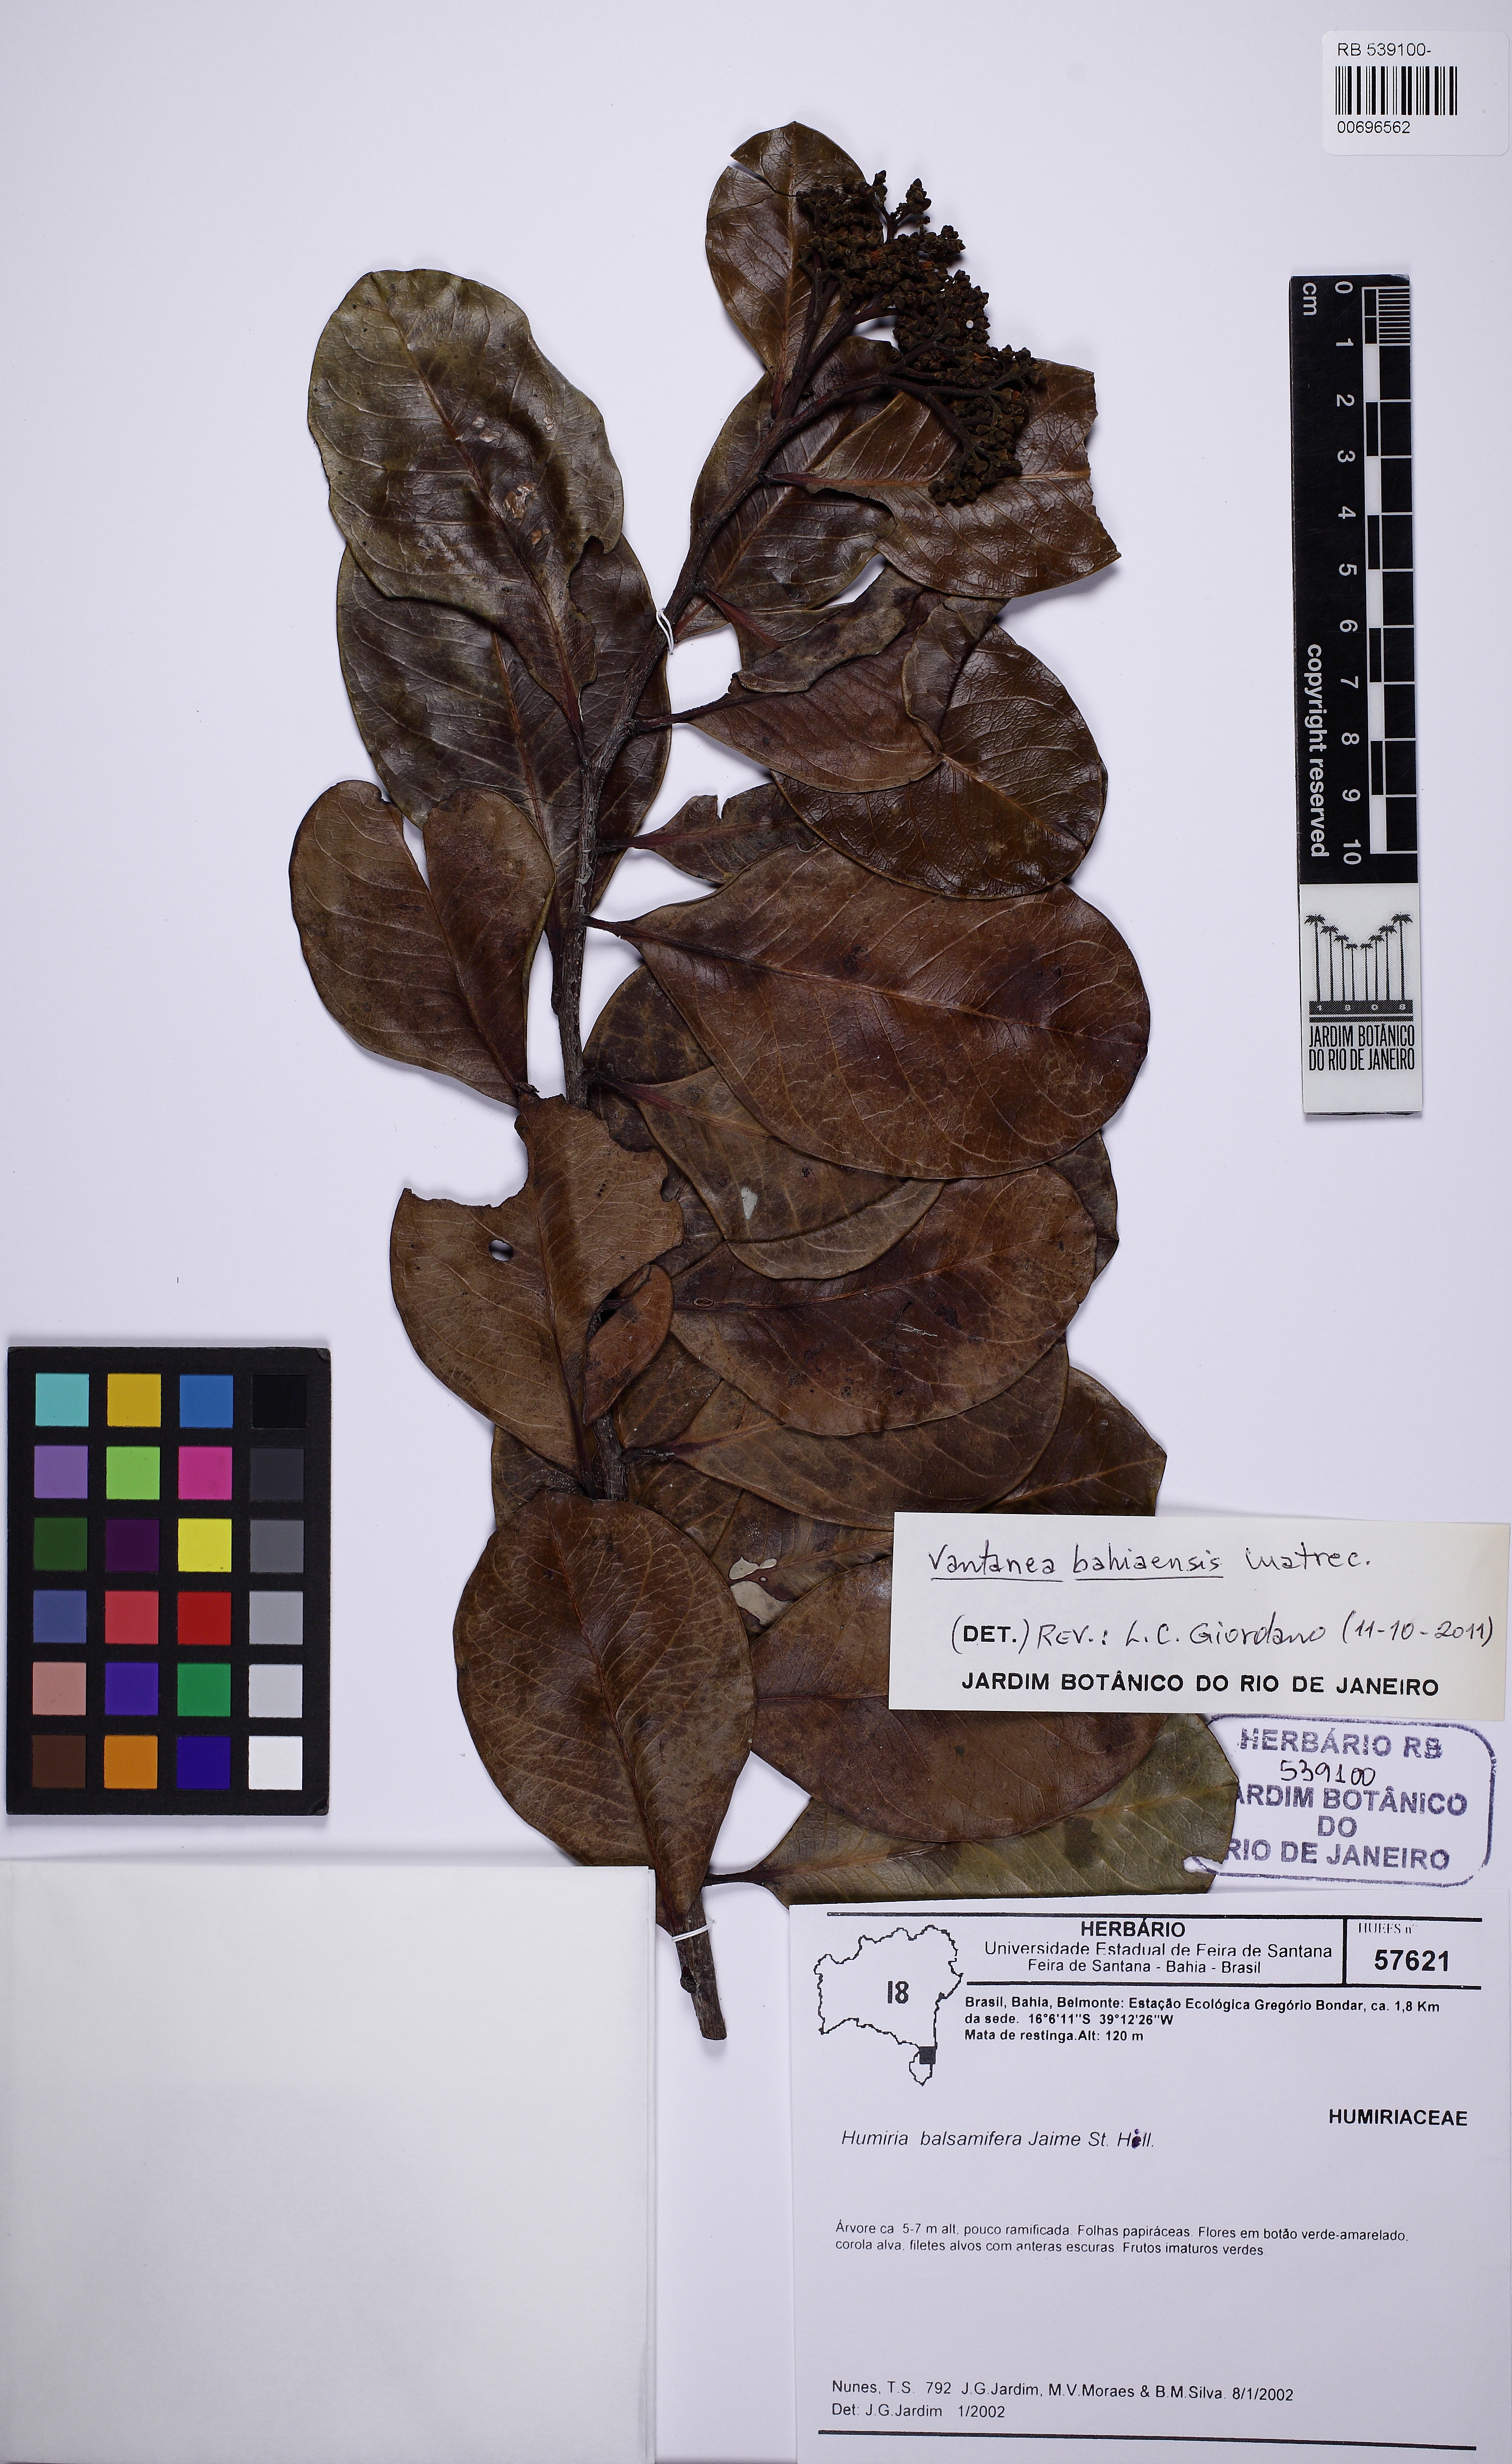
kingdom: Plantae
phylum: Tracheophyta
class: Magnoliopsida
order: Malpighiales
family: Humiriaceae
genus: Vantanea
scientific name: Vantanea bahiaensis
